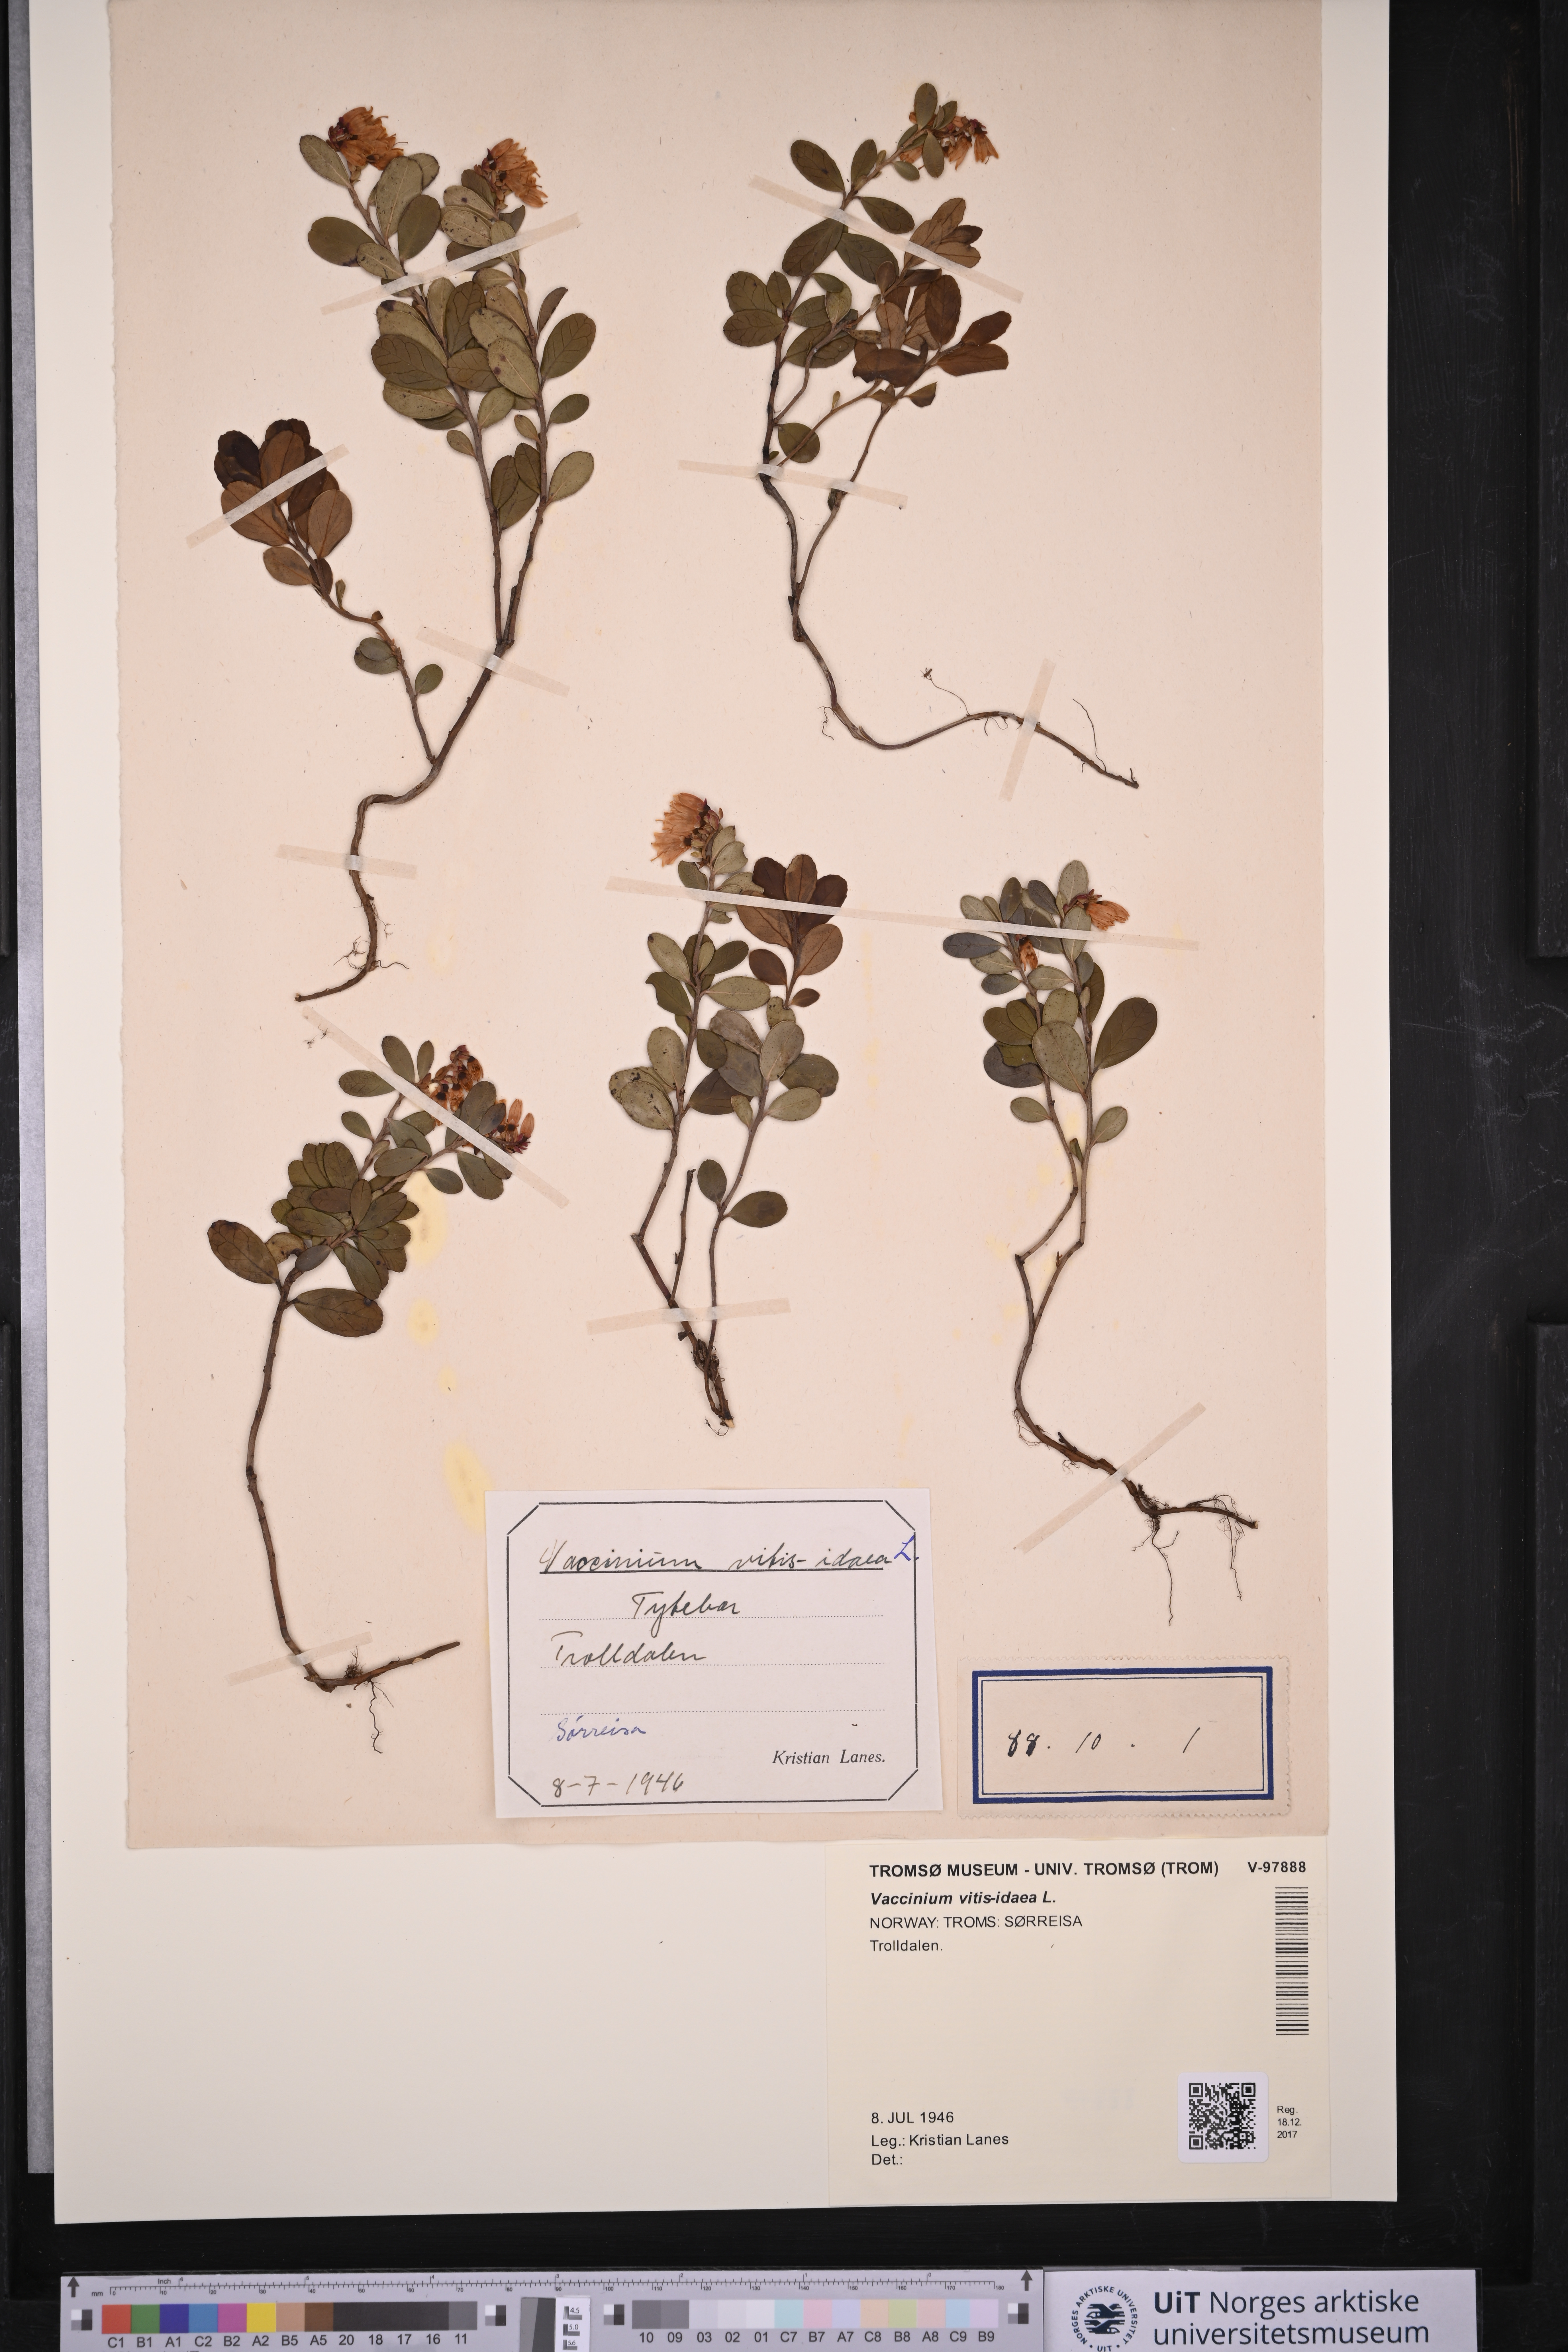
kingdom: Plantae
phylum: Tracheophyta
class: Magnoliopsida
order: Ericales
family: Ericaceae
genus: Vaccinium
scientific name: Vaccinium vitis-idaea
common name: Cowberry
